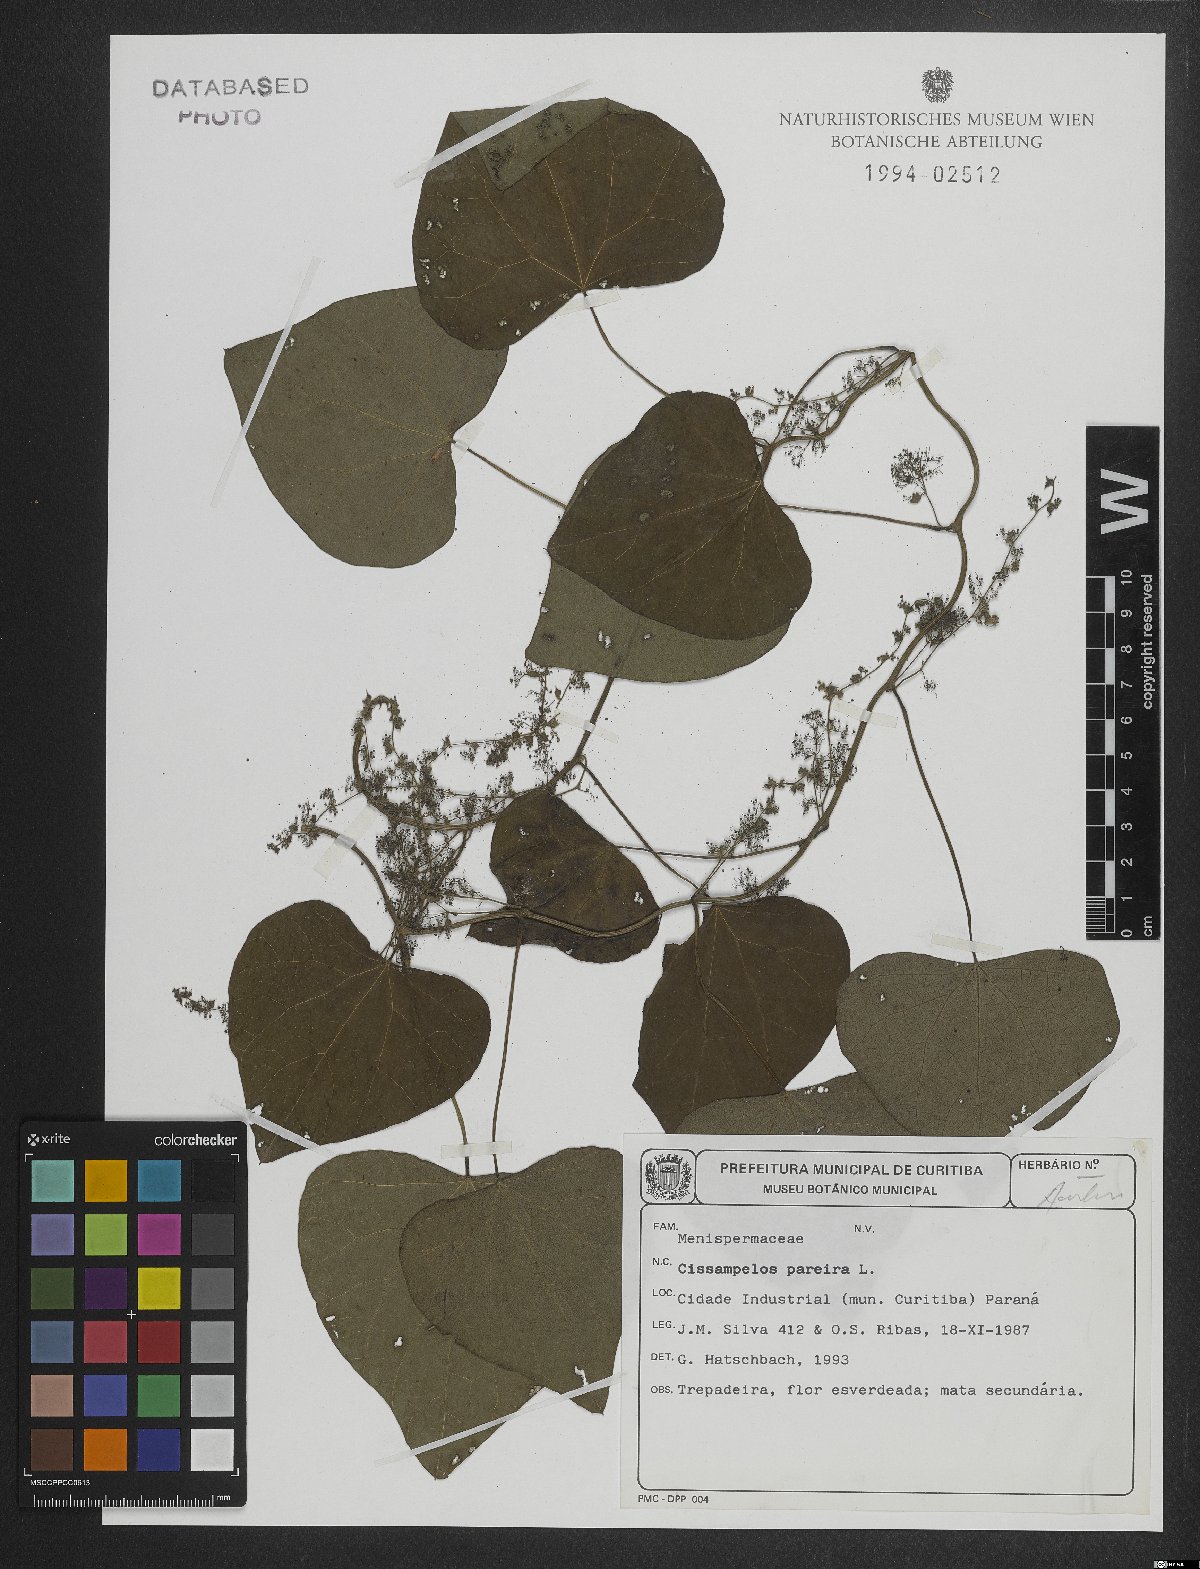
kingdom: Plantae
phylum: Tracheophyta
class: Magnoliopsida
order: Ranunculales
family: Menispermaceae
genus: Cissampelos
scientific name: Cissampelos pareira
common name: Velvetleaf
